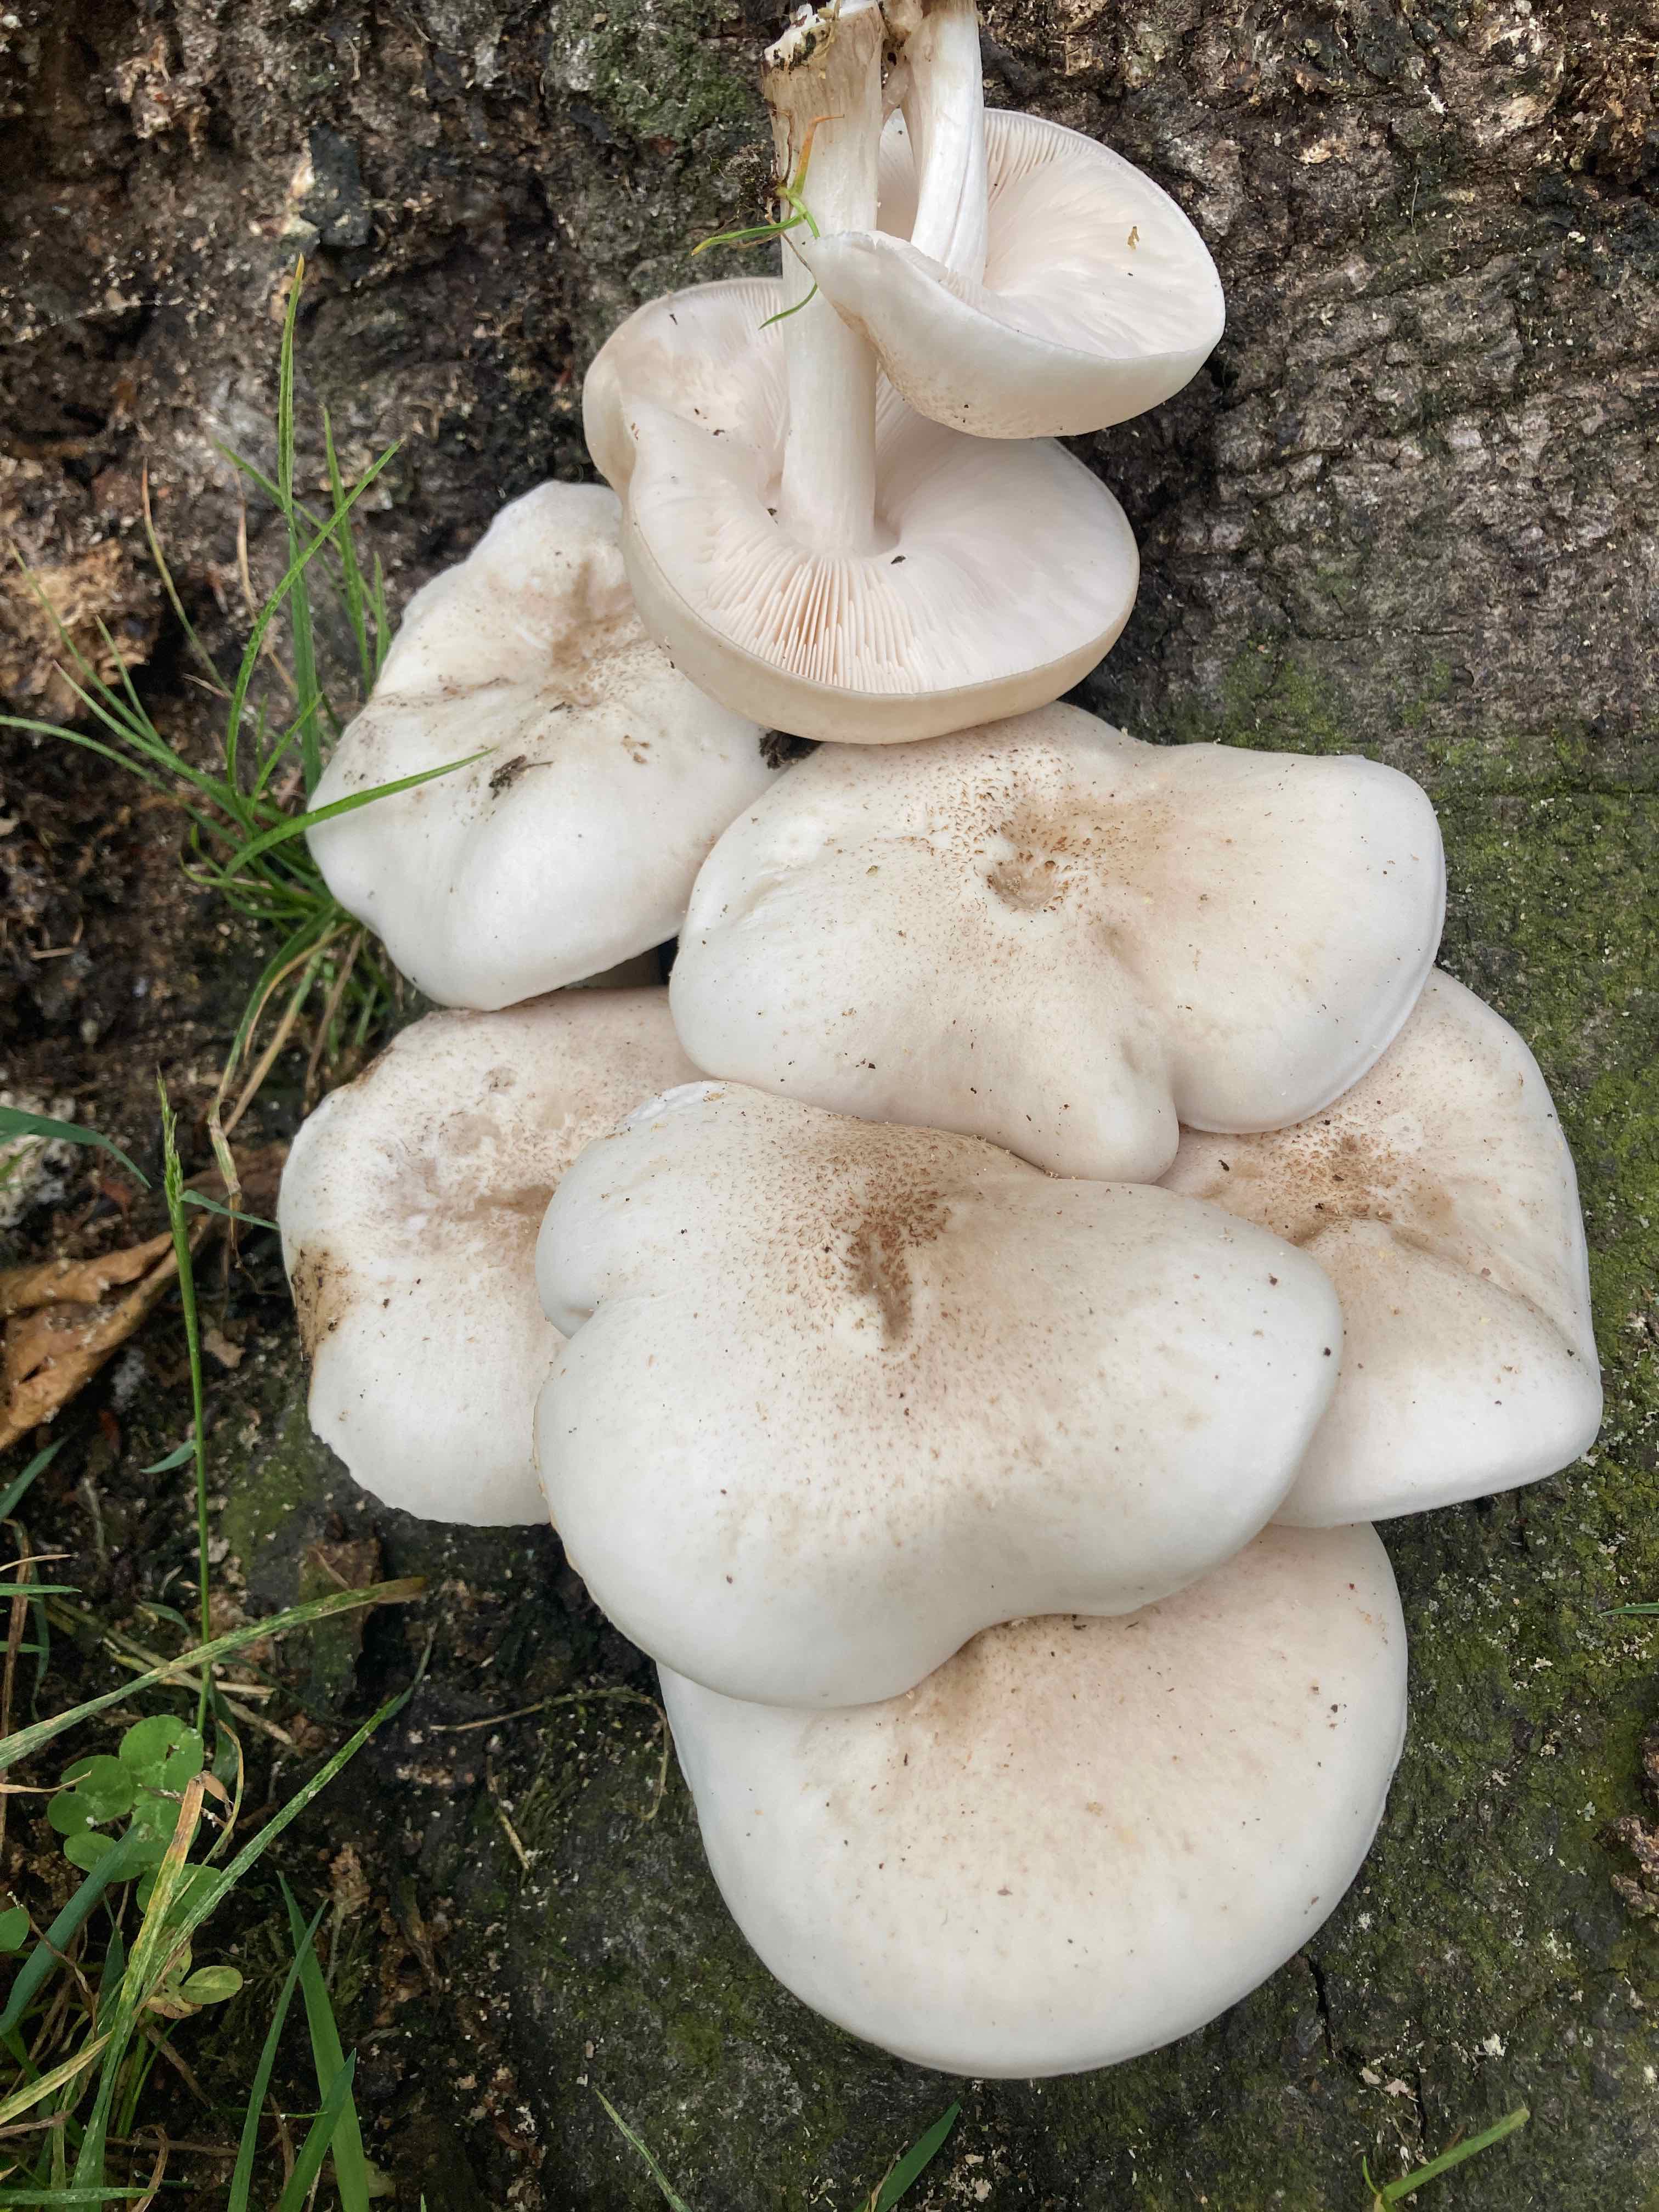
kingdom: Fungi
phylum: Basidiomycota
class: Agaricomycetes
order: Agaricales
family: Pluteaceae
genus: Pluteus
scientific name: Pluteus petasatus
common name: savsmulds-skærmhat
